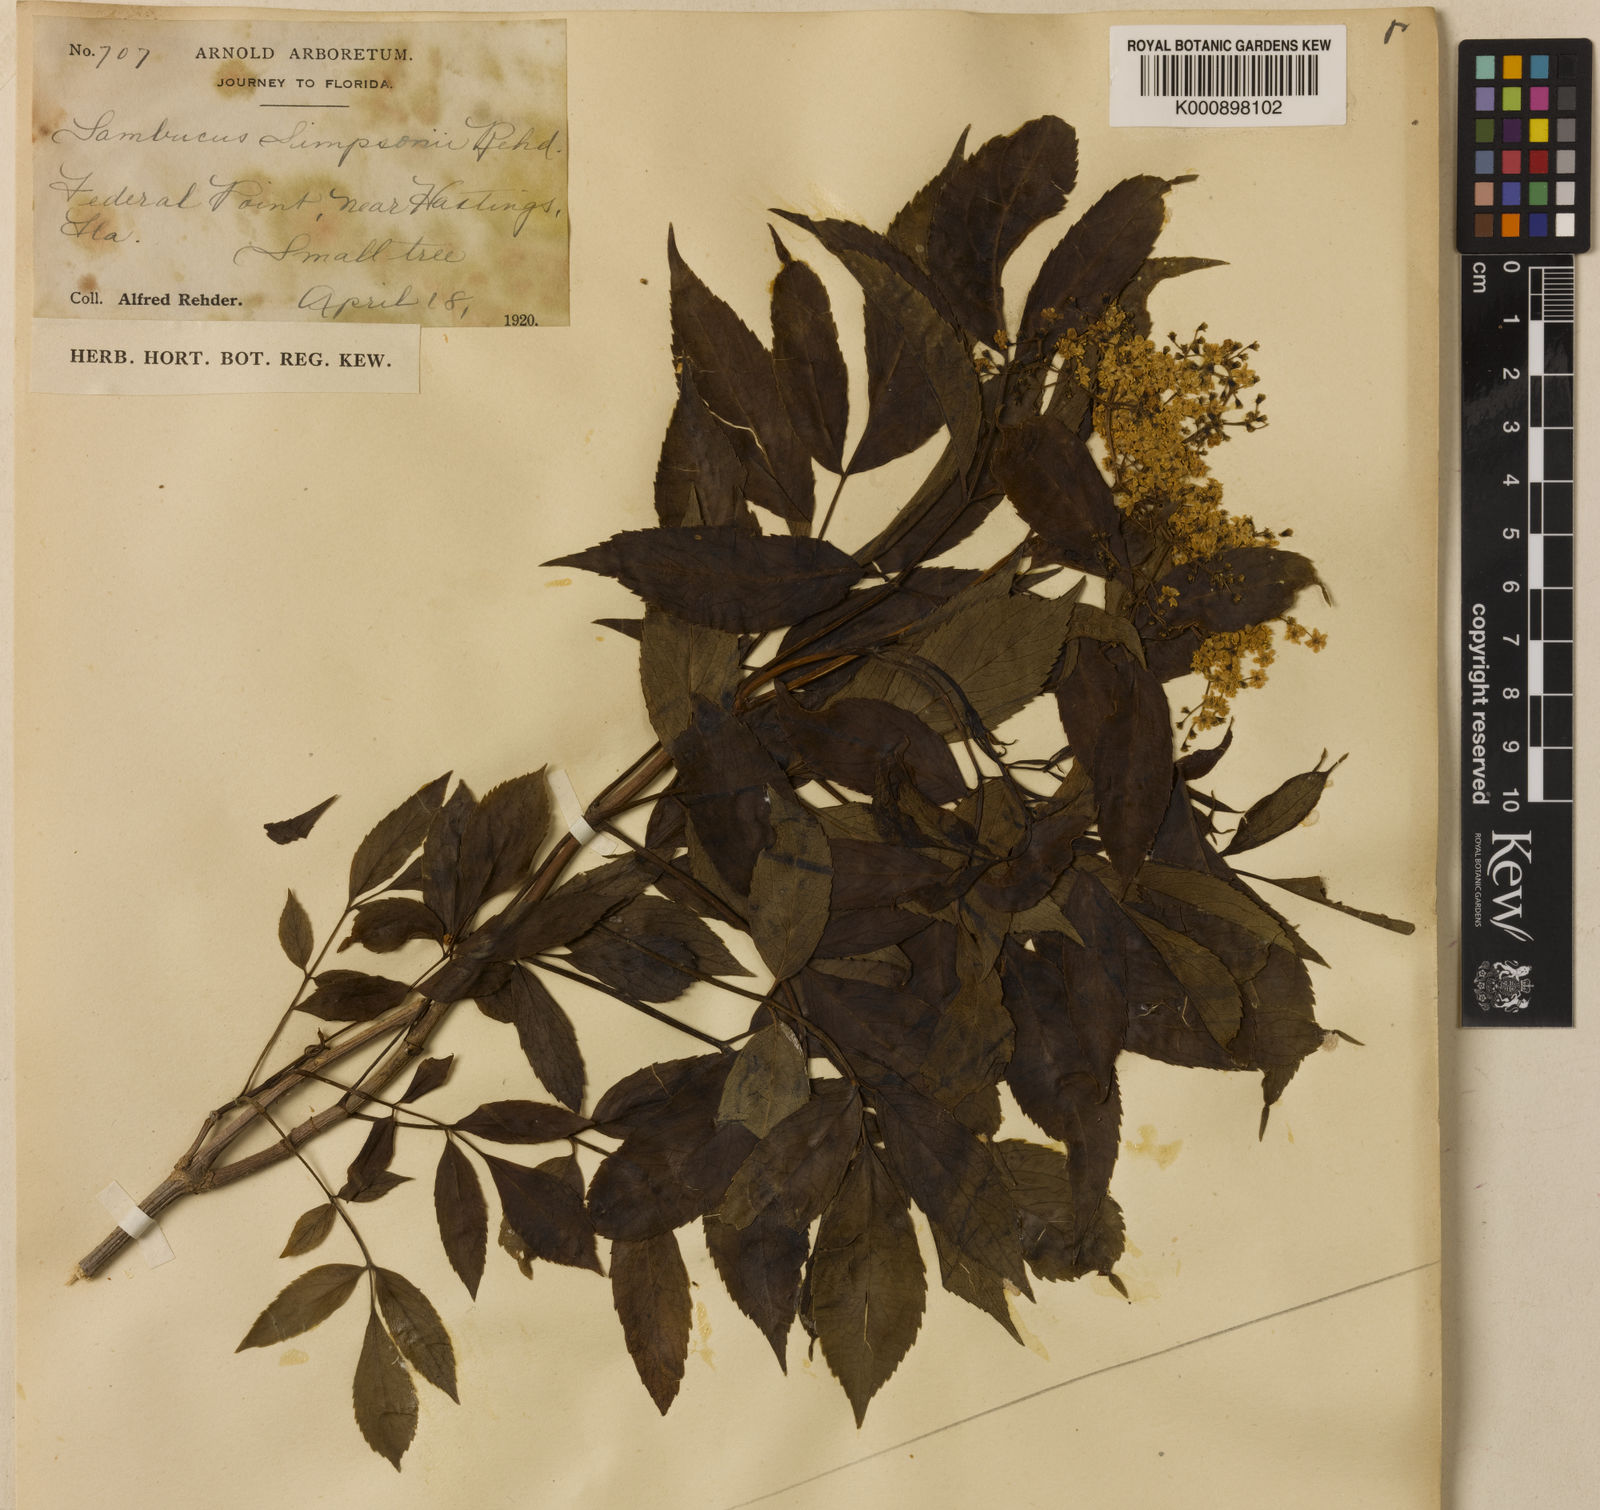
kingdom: Plantae
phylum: Tracheophyta
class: Magnoliopsida
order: Dipsacales
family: Viburnaceae
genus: Sambucus
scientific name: Sambucus canadensis
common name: American elder
